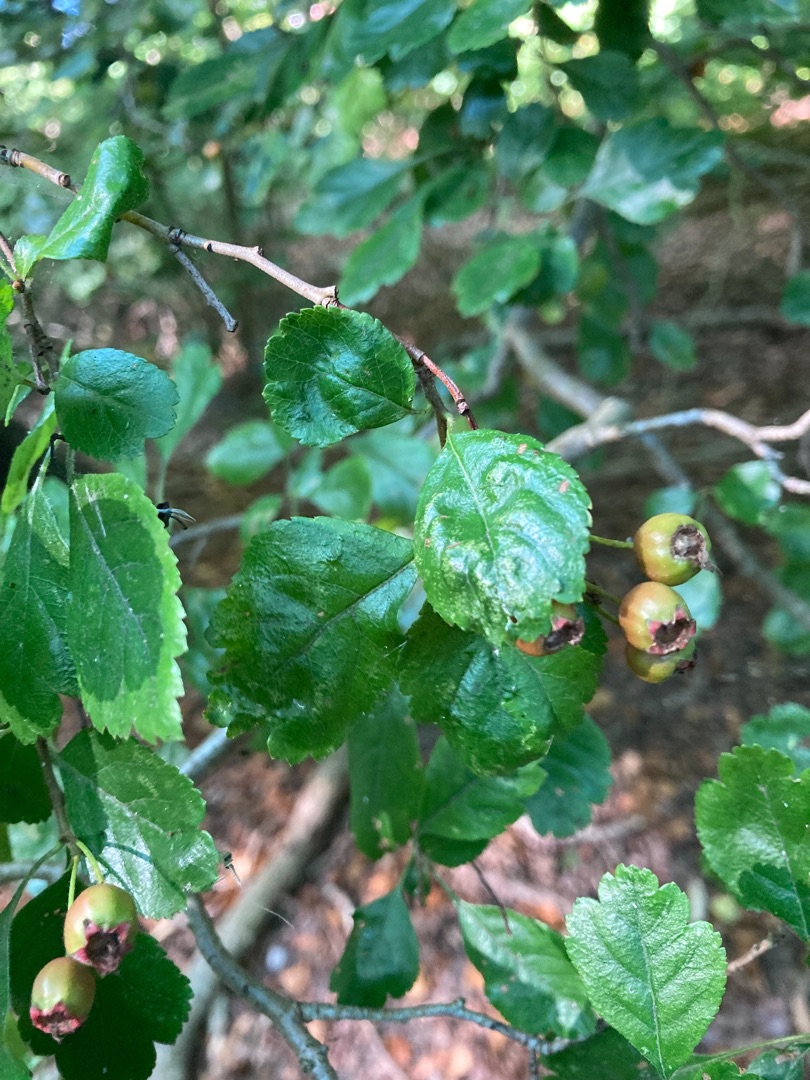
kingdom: Plantae
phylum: Tracheophyta
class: Magnoliopsida
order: Rosales
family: Rosaceae
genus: Crataegus
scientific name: Crataegus laevigata
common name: Almindelig hvidtjørn
